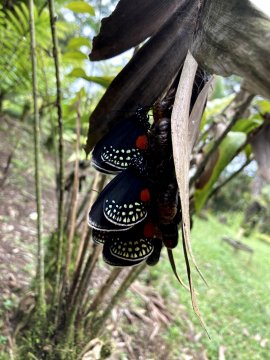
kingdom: Animalia
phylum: Arthropoda
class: Insecta
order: Lepidoptera
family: Lycaenidae
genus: Eumaeus
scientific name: Eumaeus godartii
